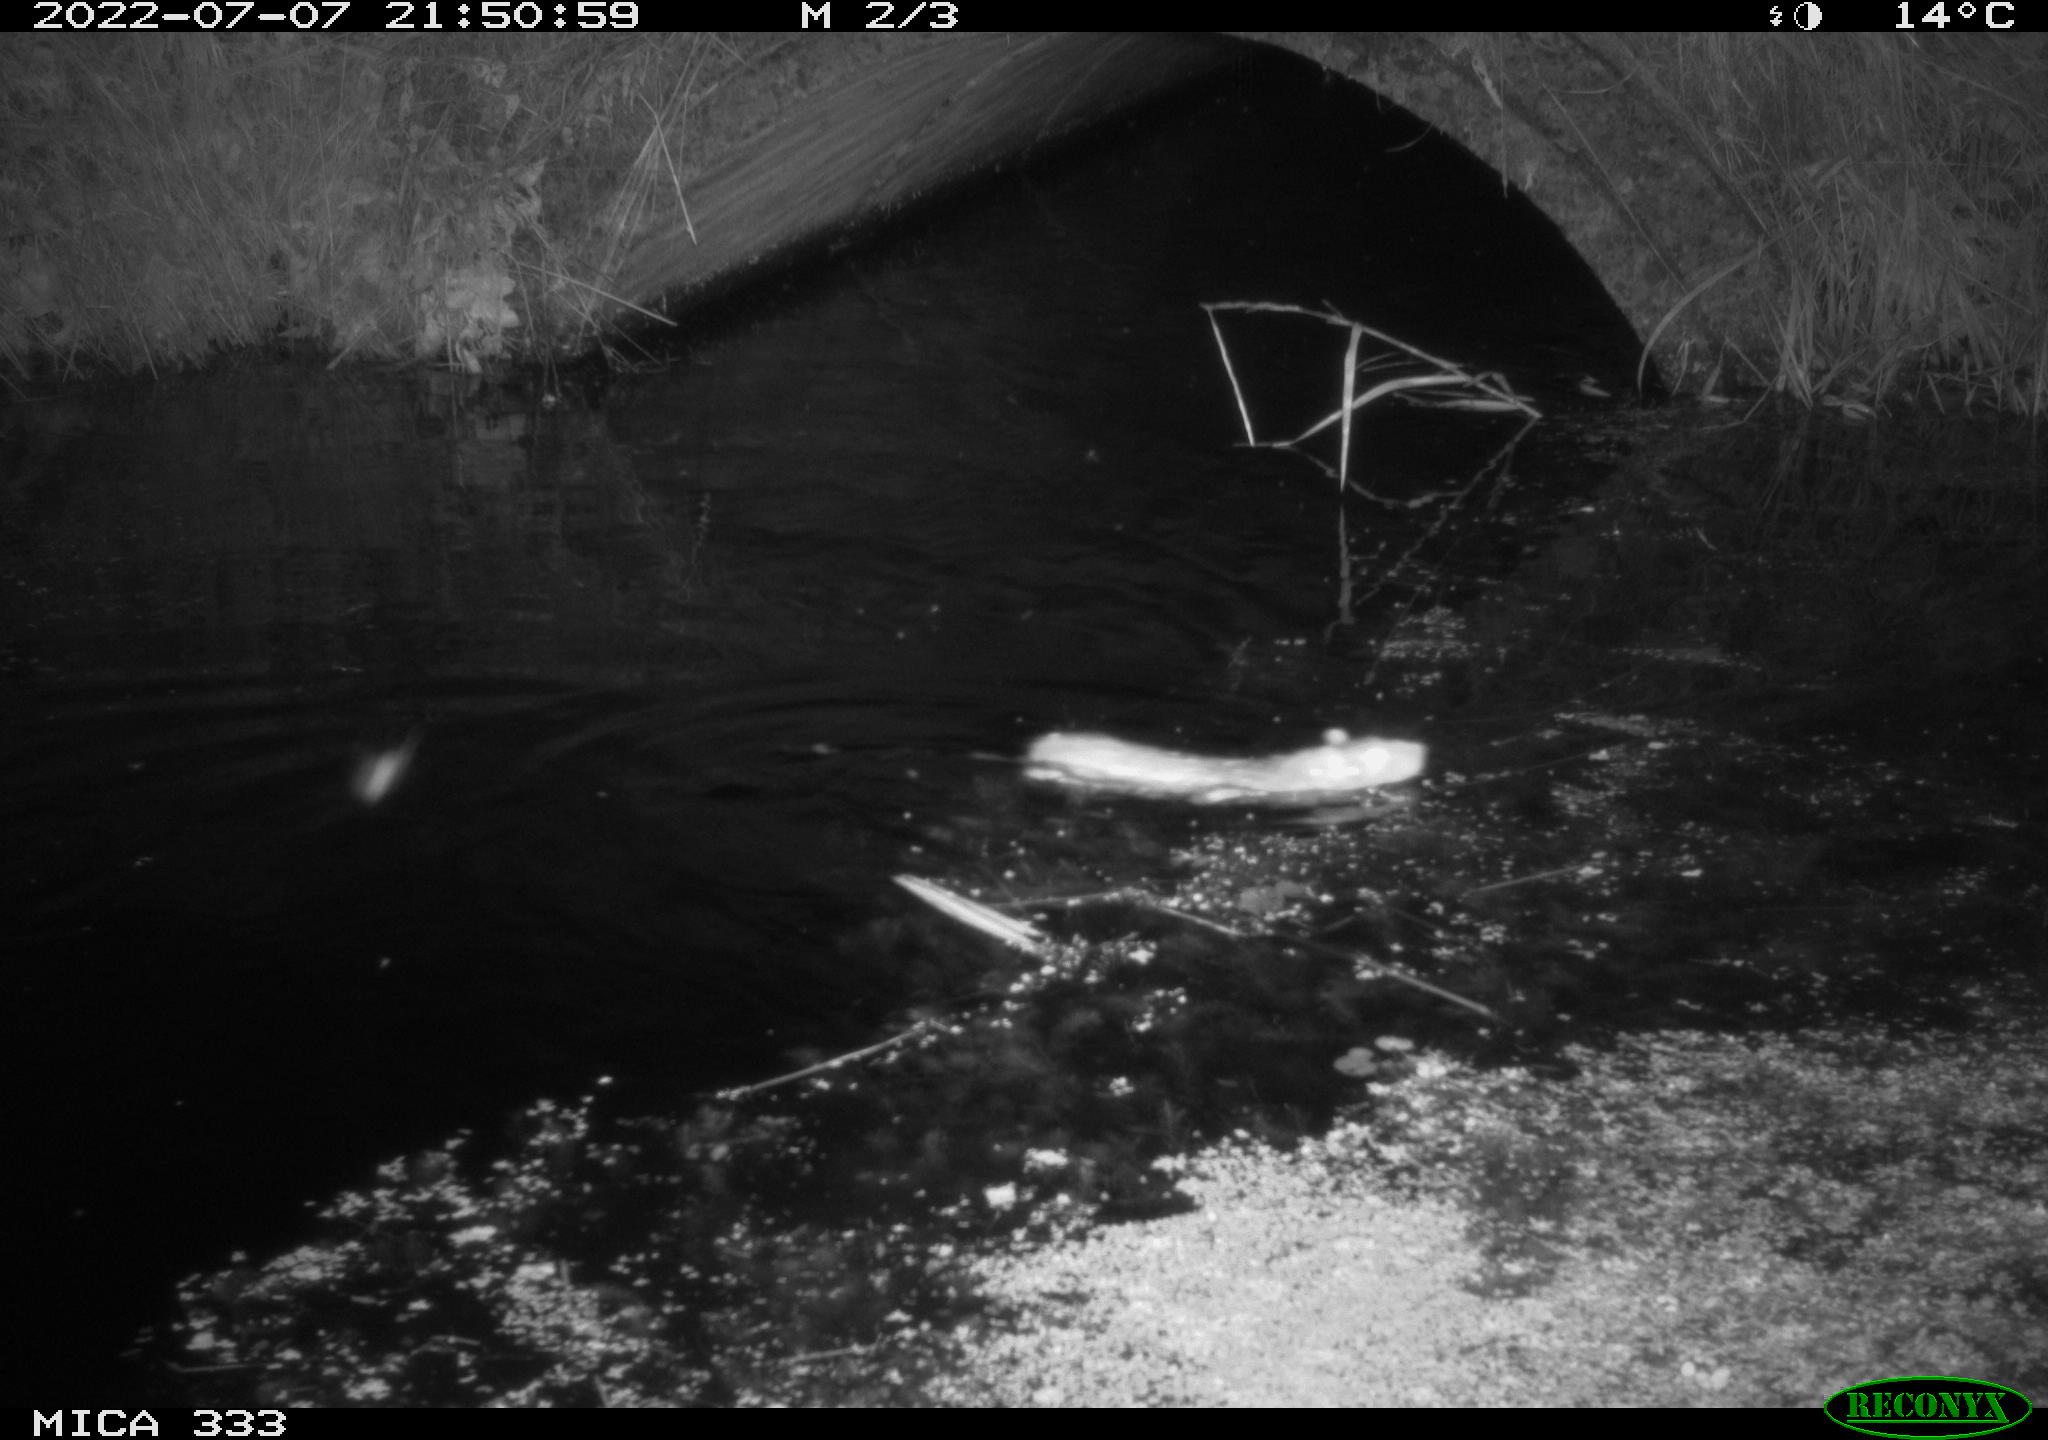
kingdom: Animalia
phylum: Chordata
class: Mammalia
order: Rodentia
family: Muridae
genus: Rattus
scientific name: Rattus norvegicus
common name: Brown rat
